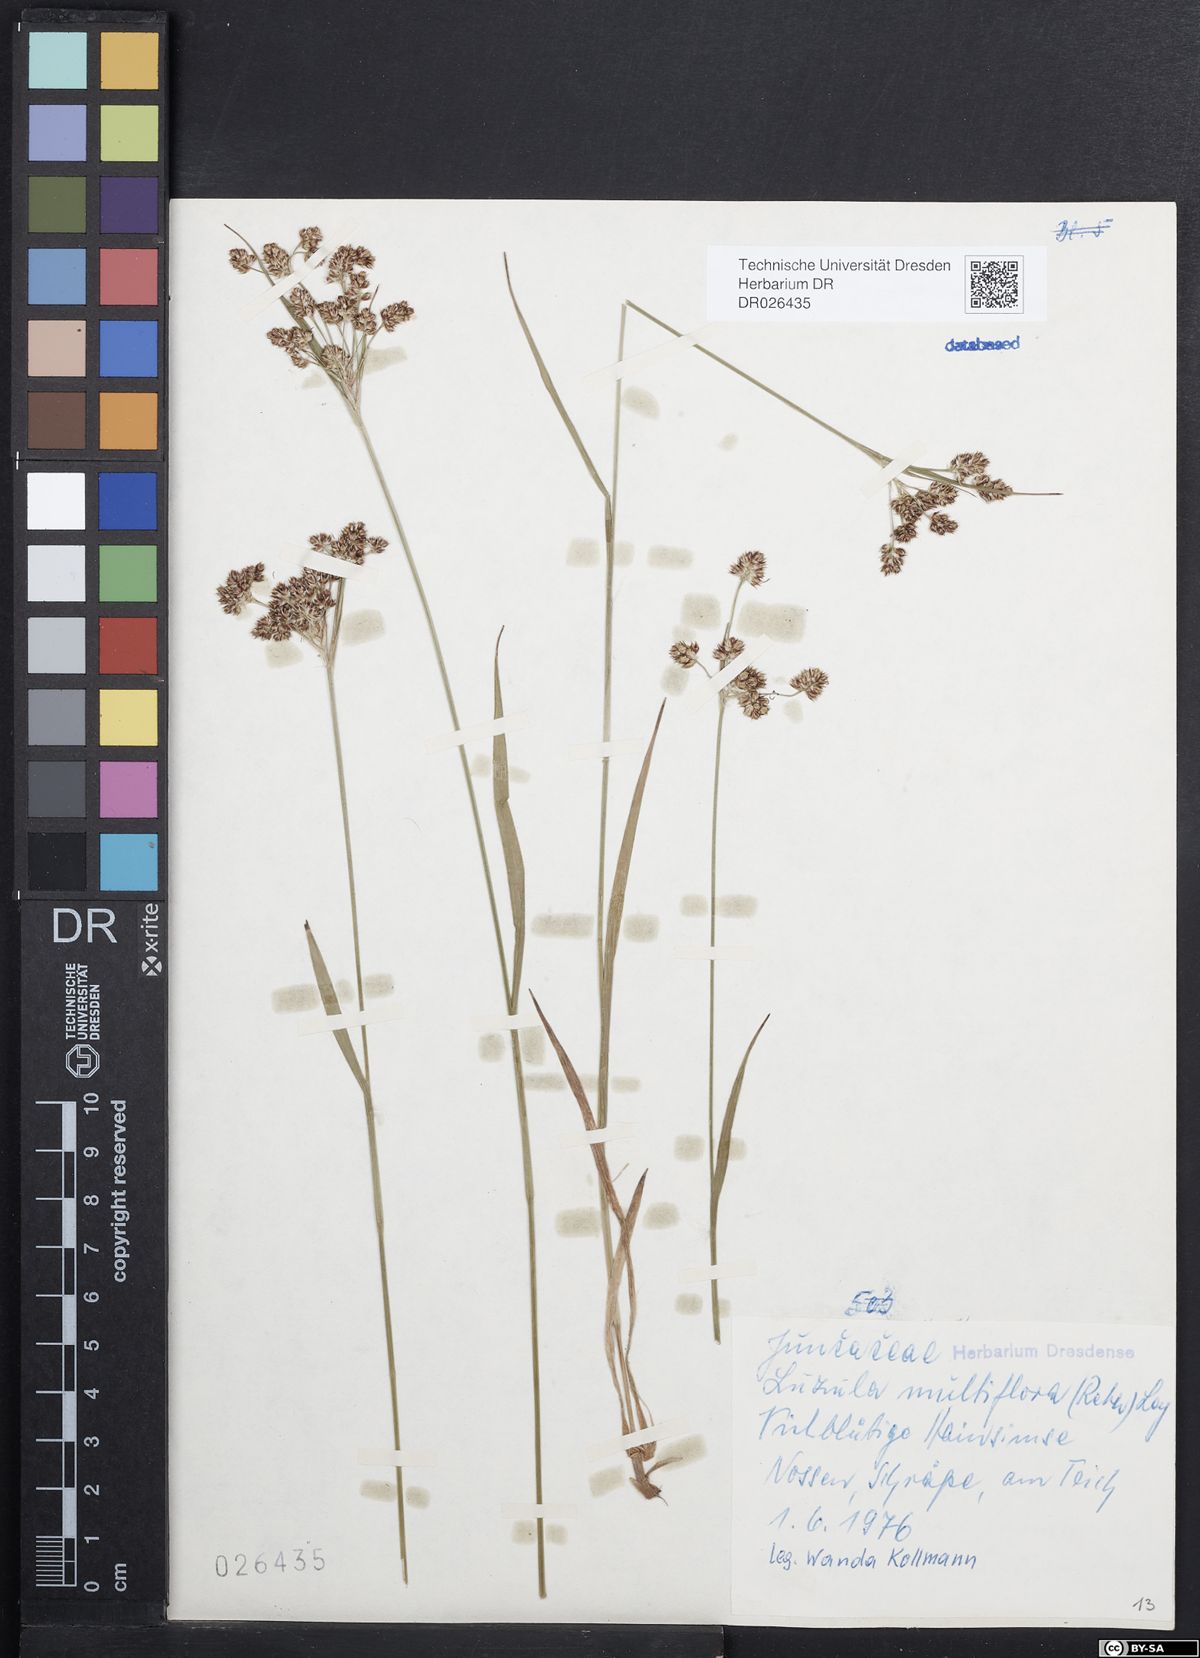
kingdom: Plantae
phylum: Tracheophyta
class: Liliopsida
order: Poales
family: Juncaceae
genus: Luzula
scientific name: Luzula multiflora
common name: Heath wood-rush
